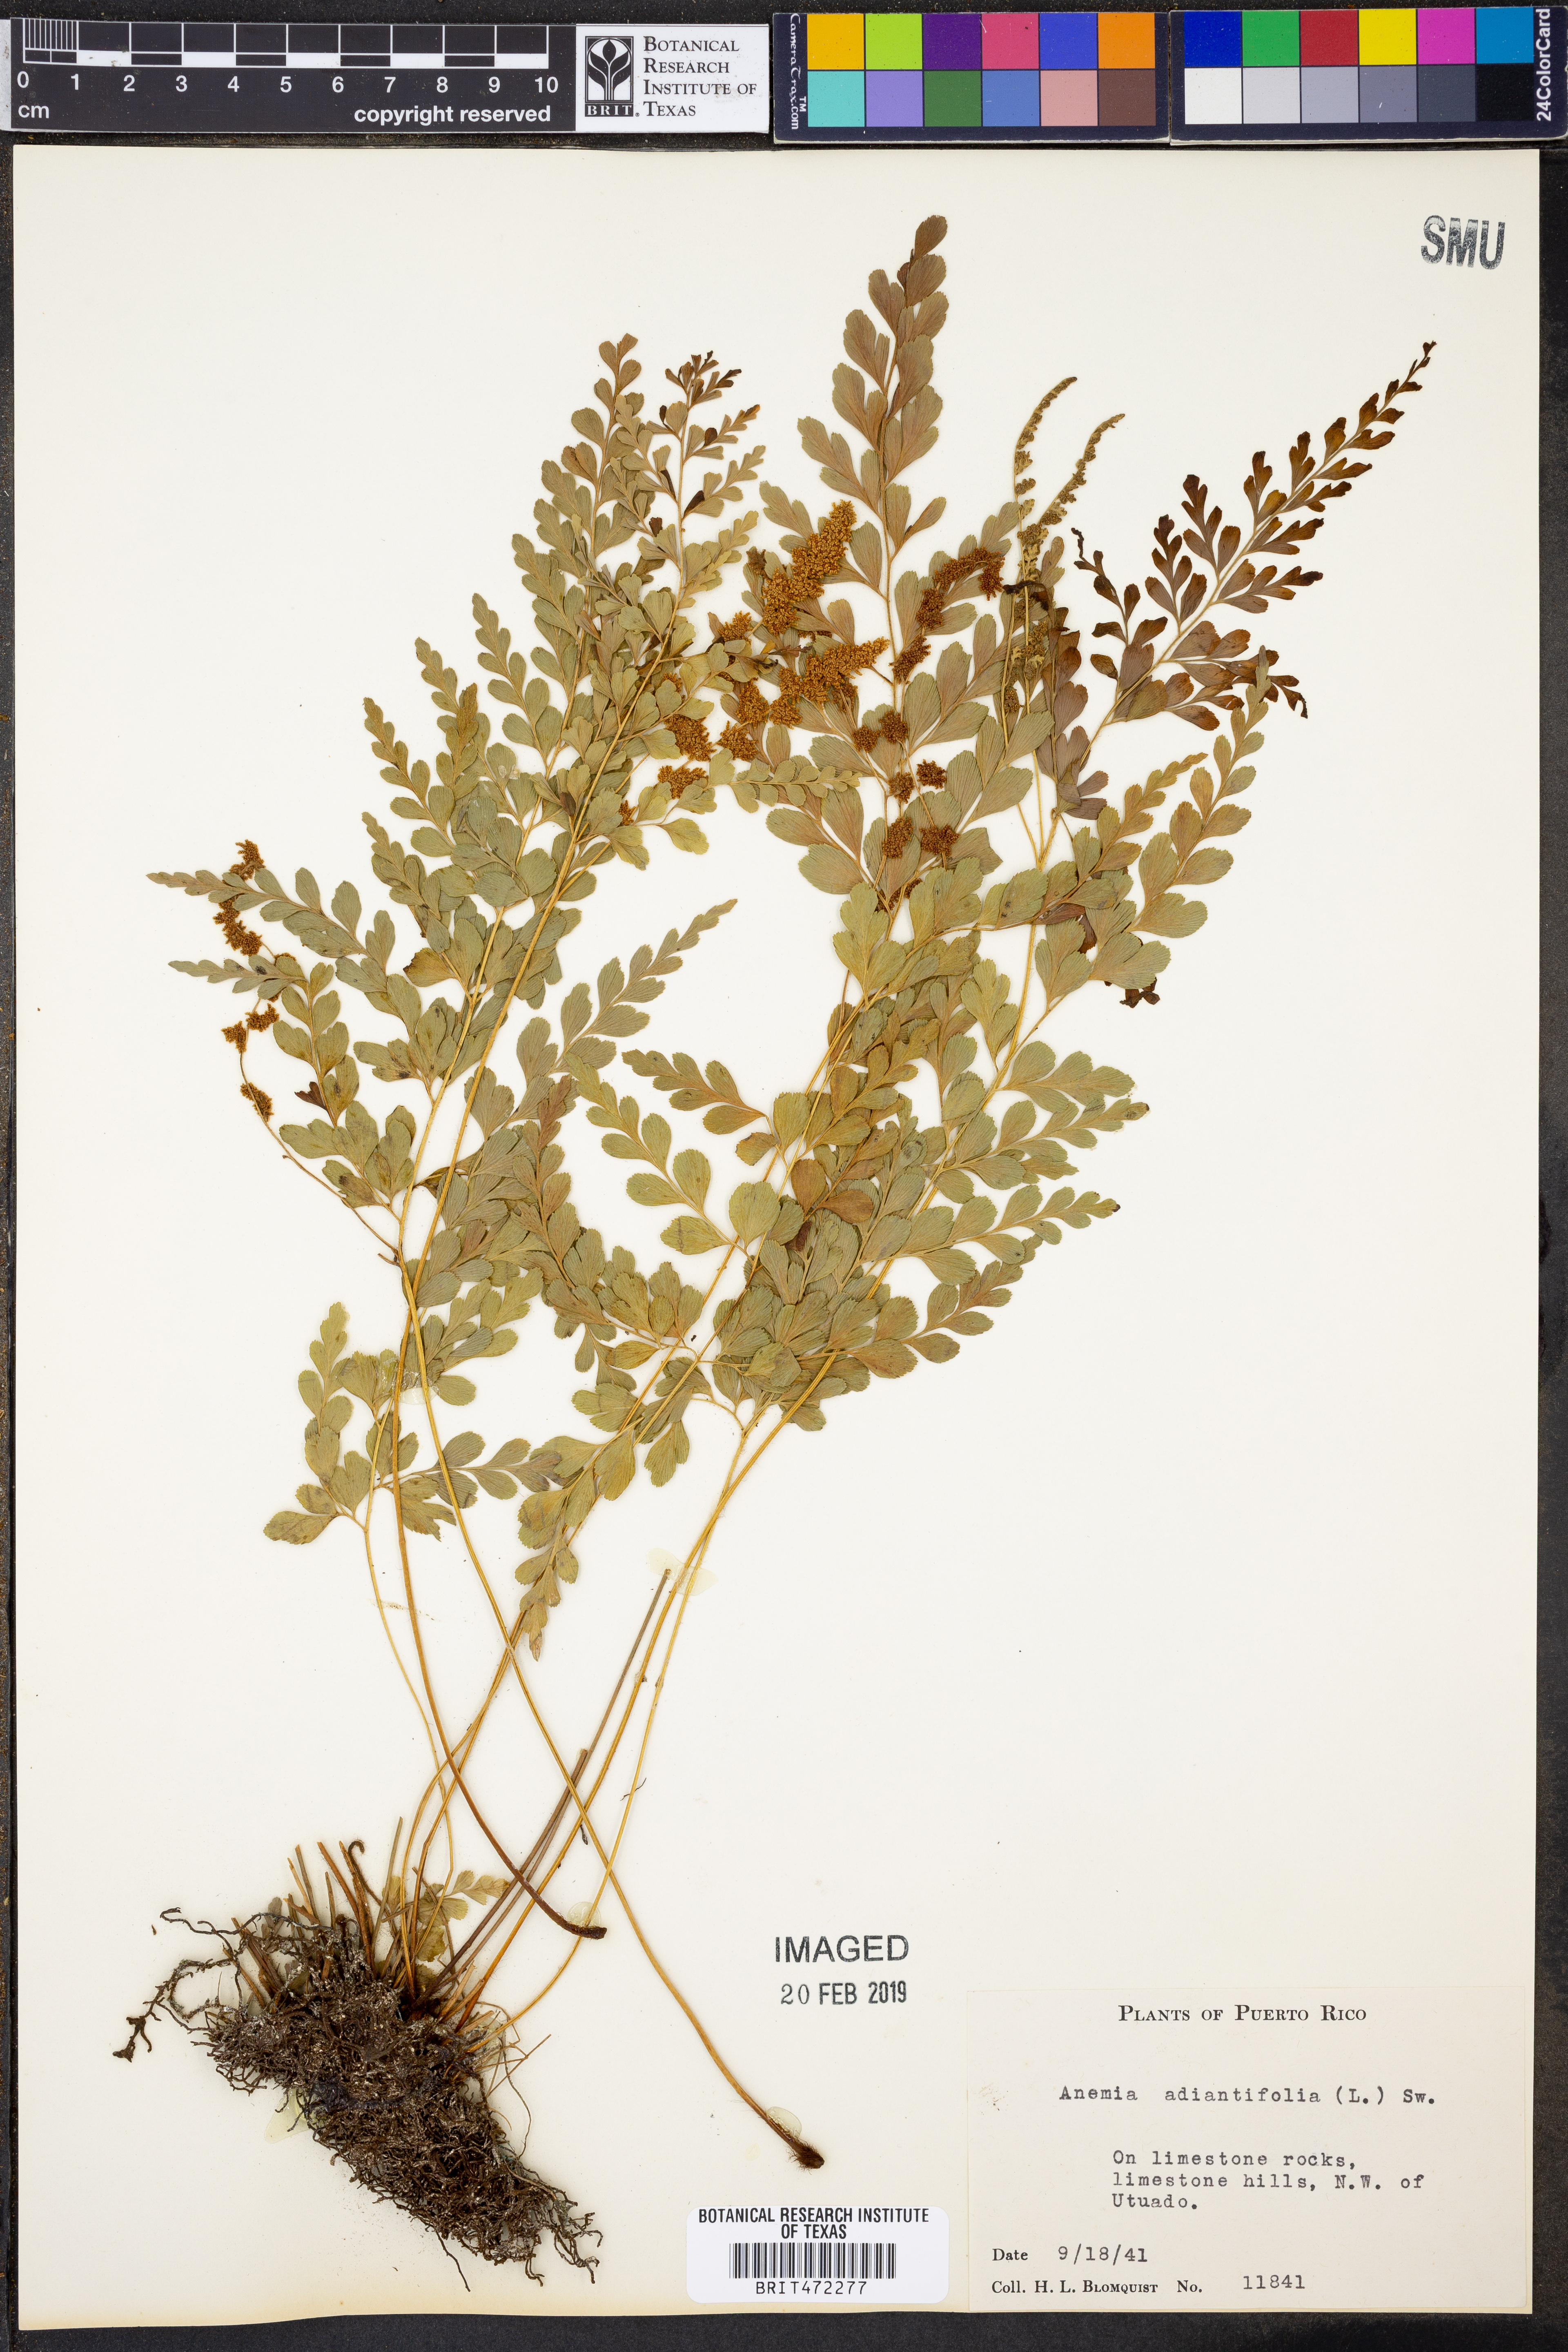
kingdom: Plantae
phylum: Tracheophyta
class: Polypodiopsida
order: Schizaeales
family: Anemiaceae
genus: Anemia
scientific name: Anemia adiantifolia
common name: Pine fern
